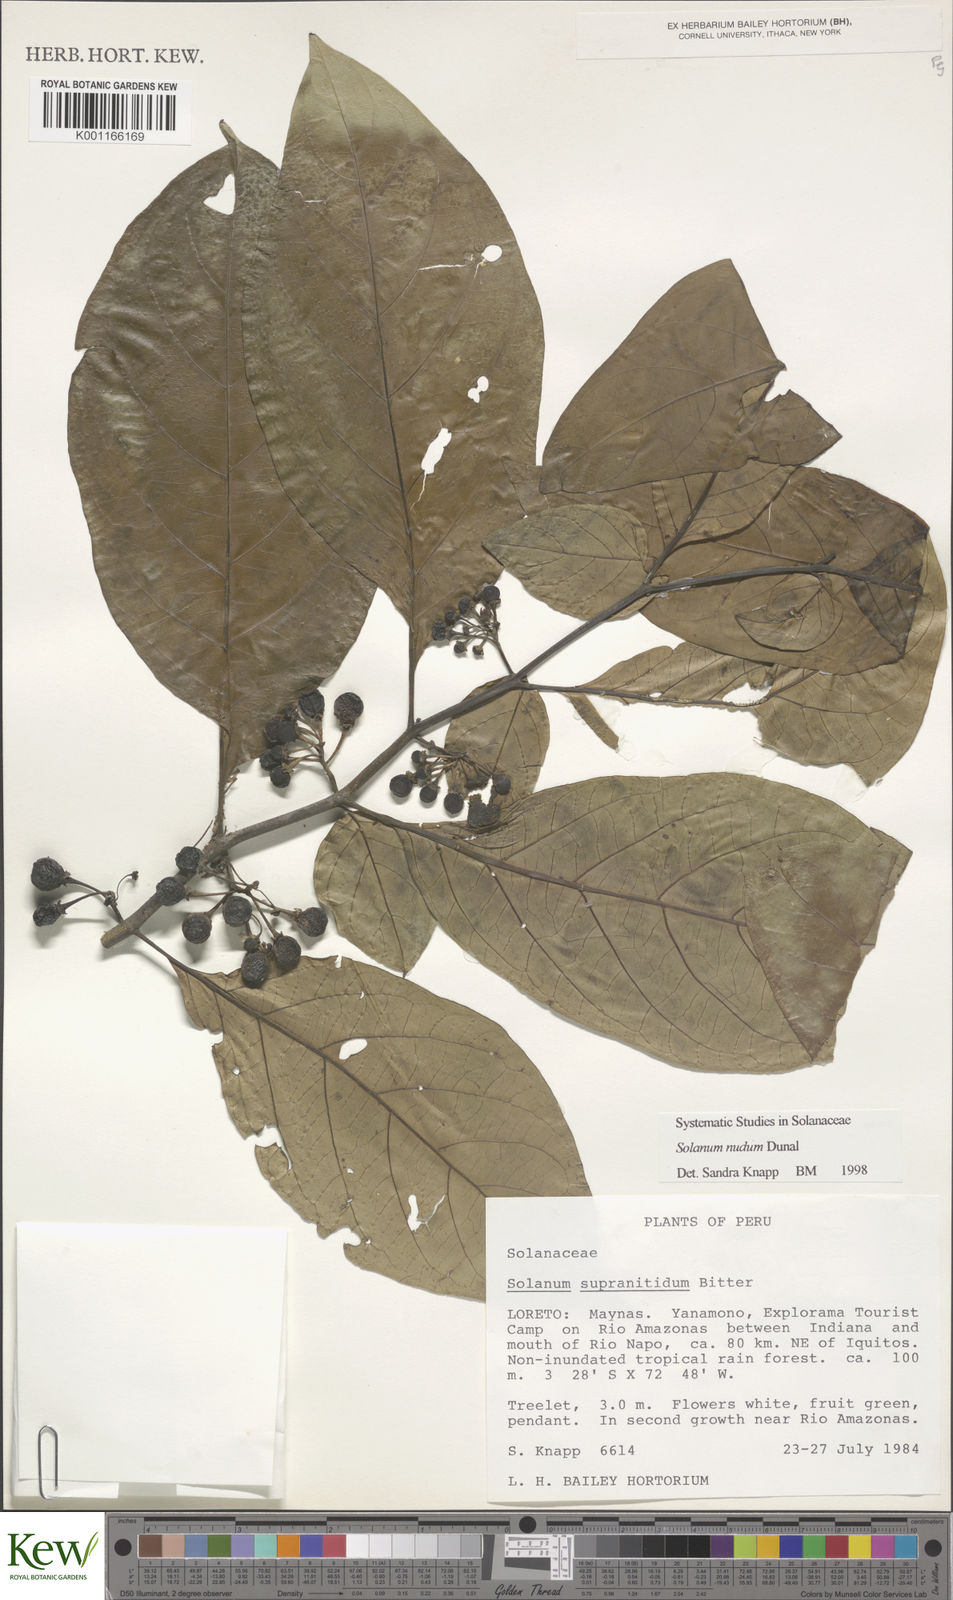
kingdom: Plantae
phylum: Tracheophyta
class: Magnoliopsida
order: Solanales
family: Solanaceae
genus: Solanum
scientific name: Solanum nudum
